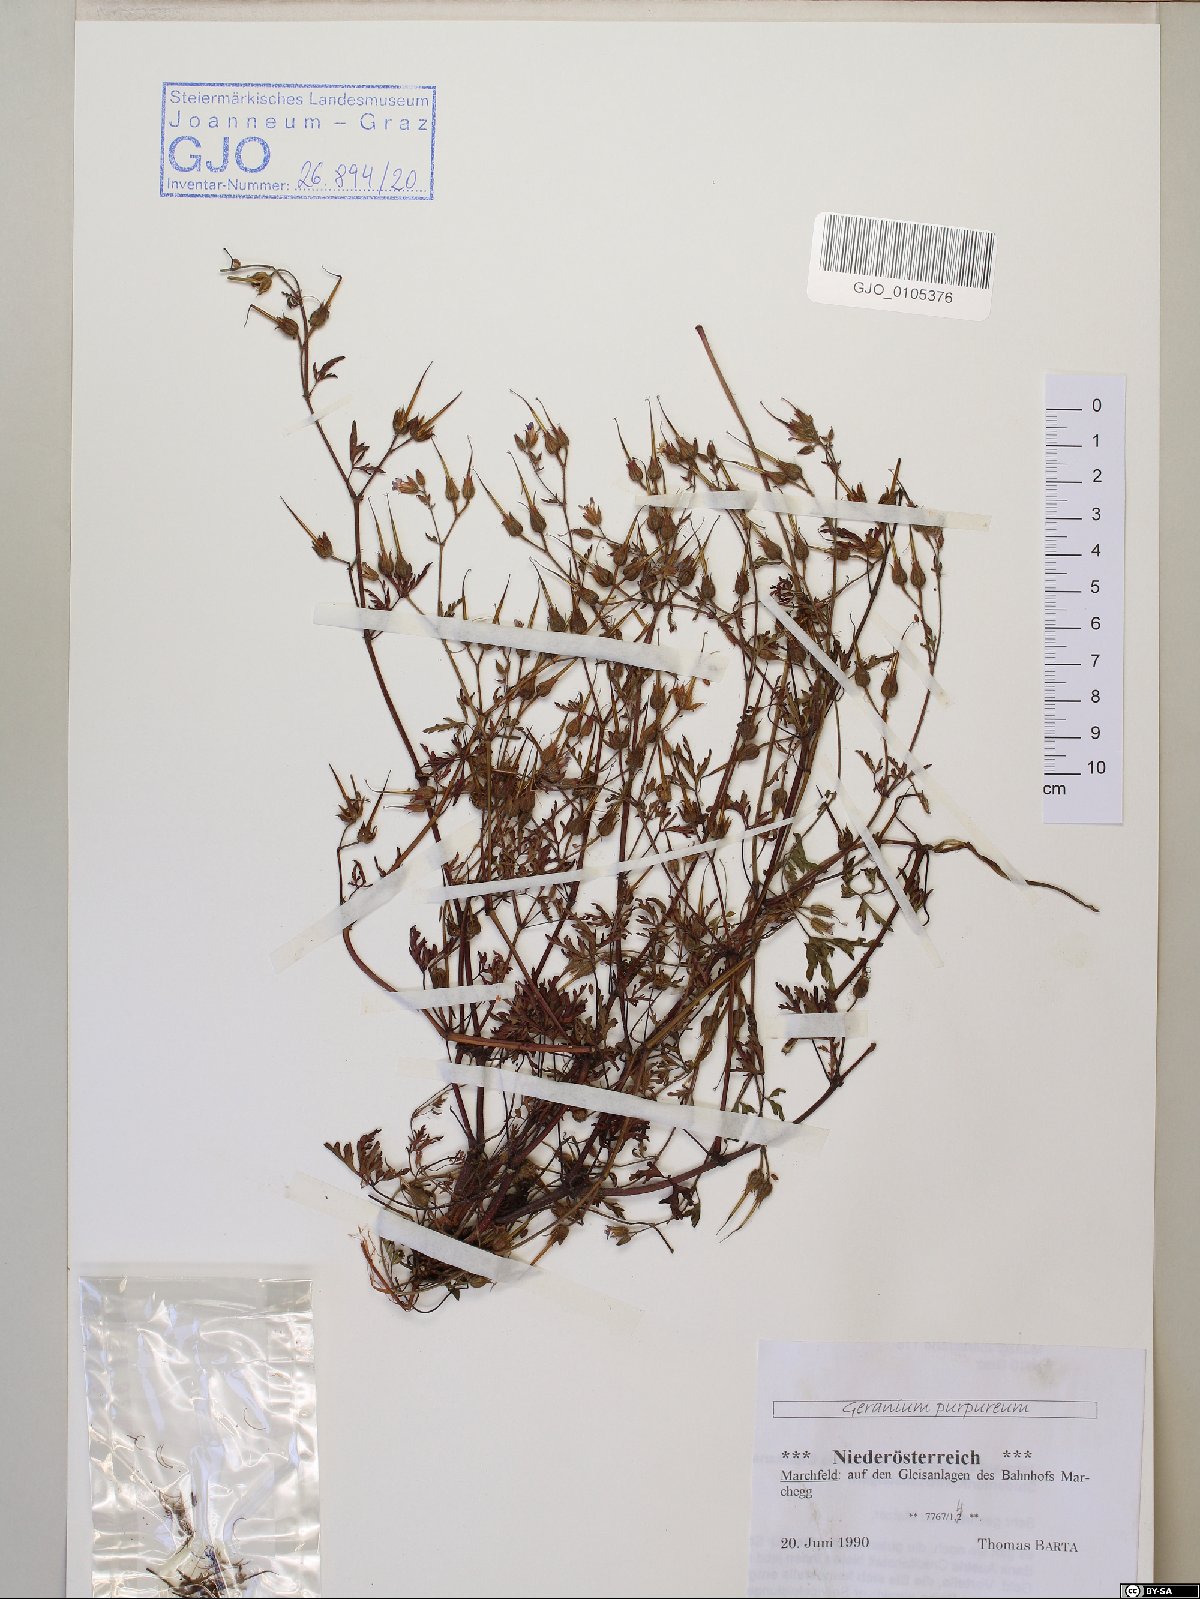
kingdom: Plantae
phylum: Tracheophyta
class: Magnoliopsida
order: Geraniales
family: Geraniaceae
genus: Geranium
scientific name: Geranium purpureum
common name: Little-robin
